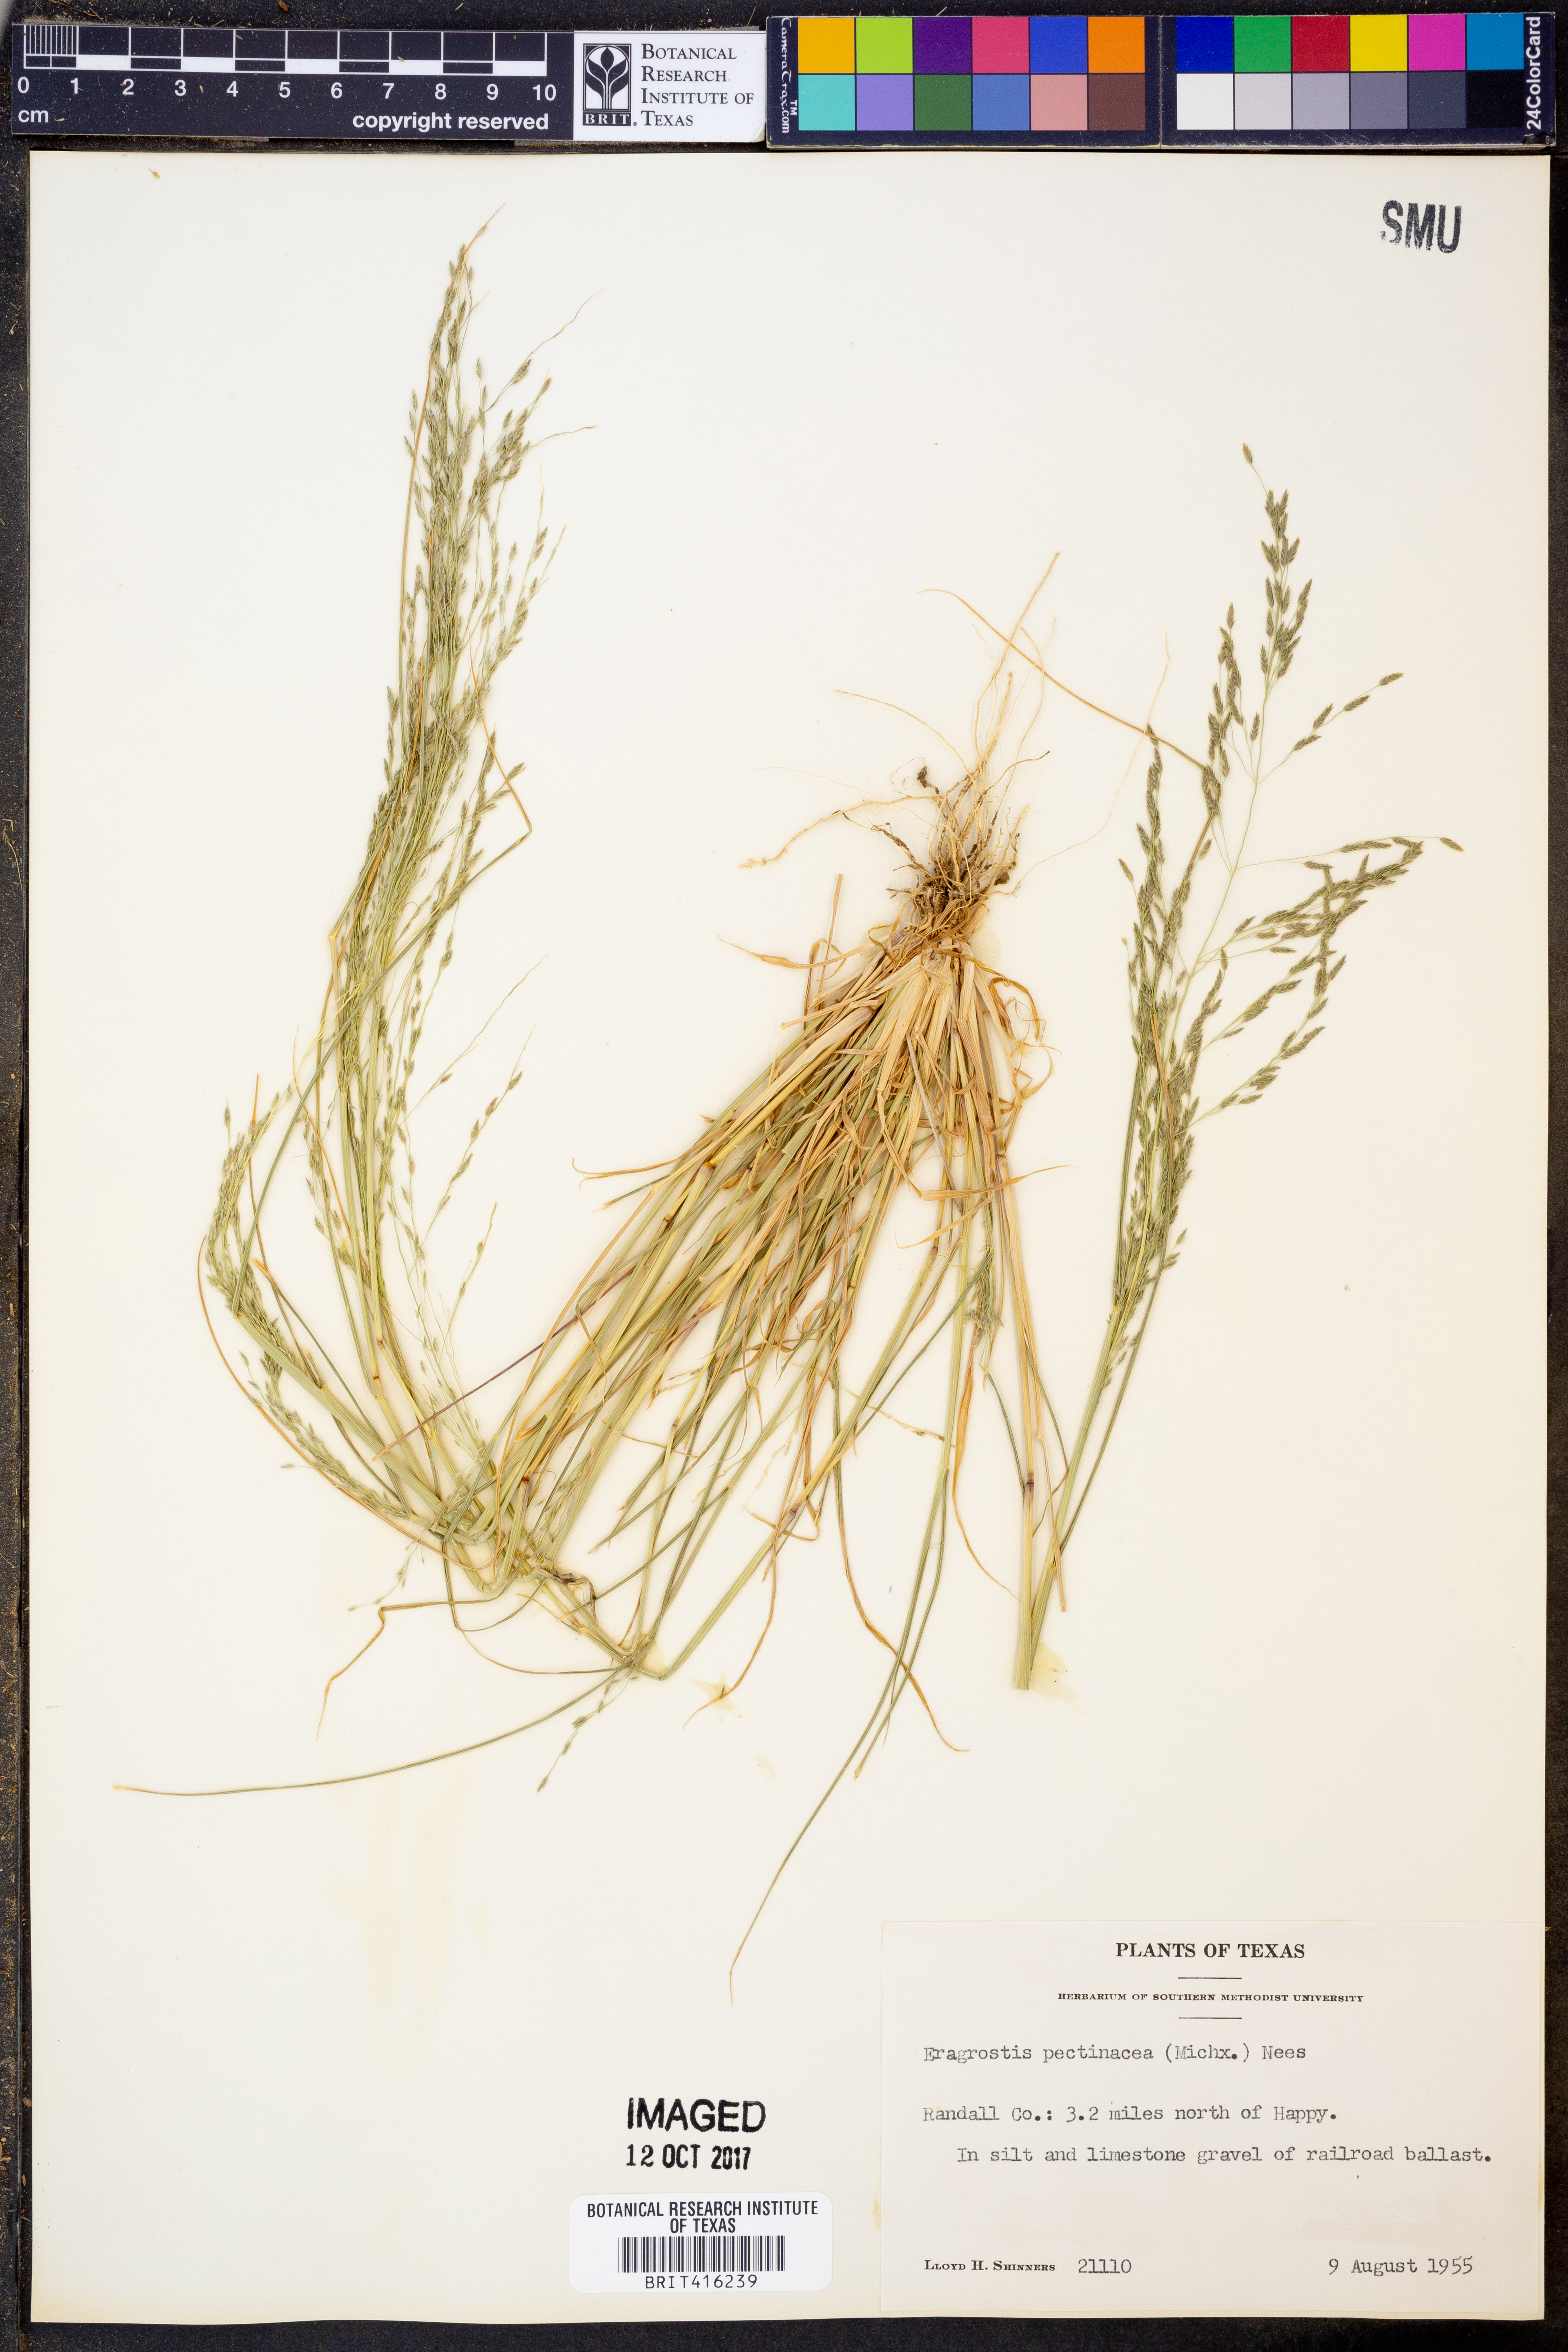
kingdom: Plantae
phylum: Tracheophyta
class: Liliopsida
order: Poales
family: Poaceae
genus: Eragrostis
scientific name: Eragrostis pectinacea
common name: Tufted lovegrass
